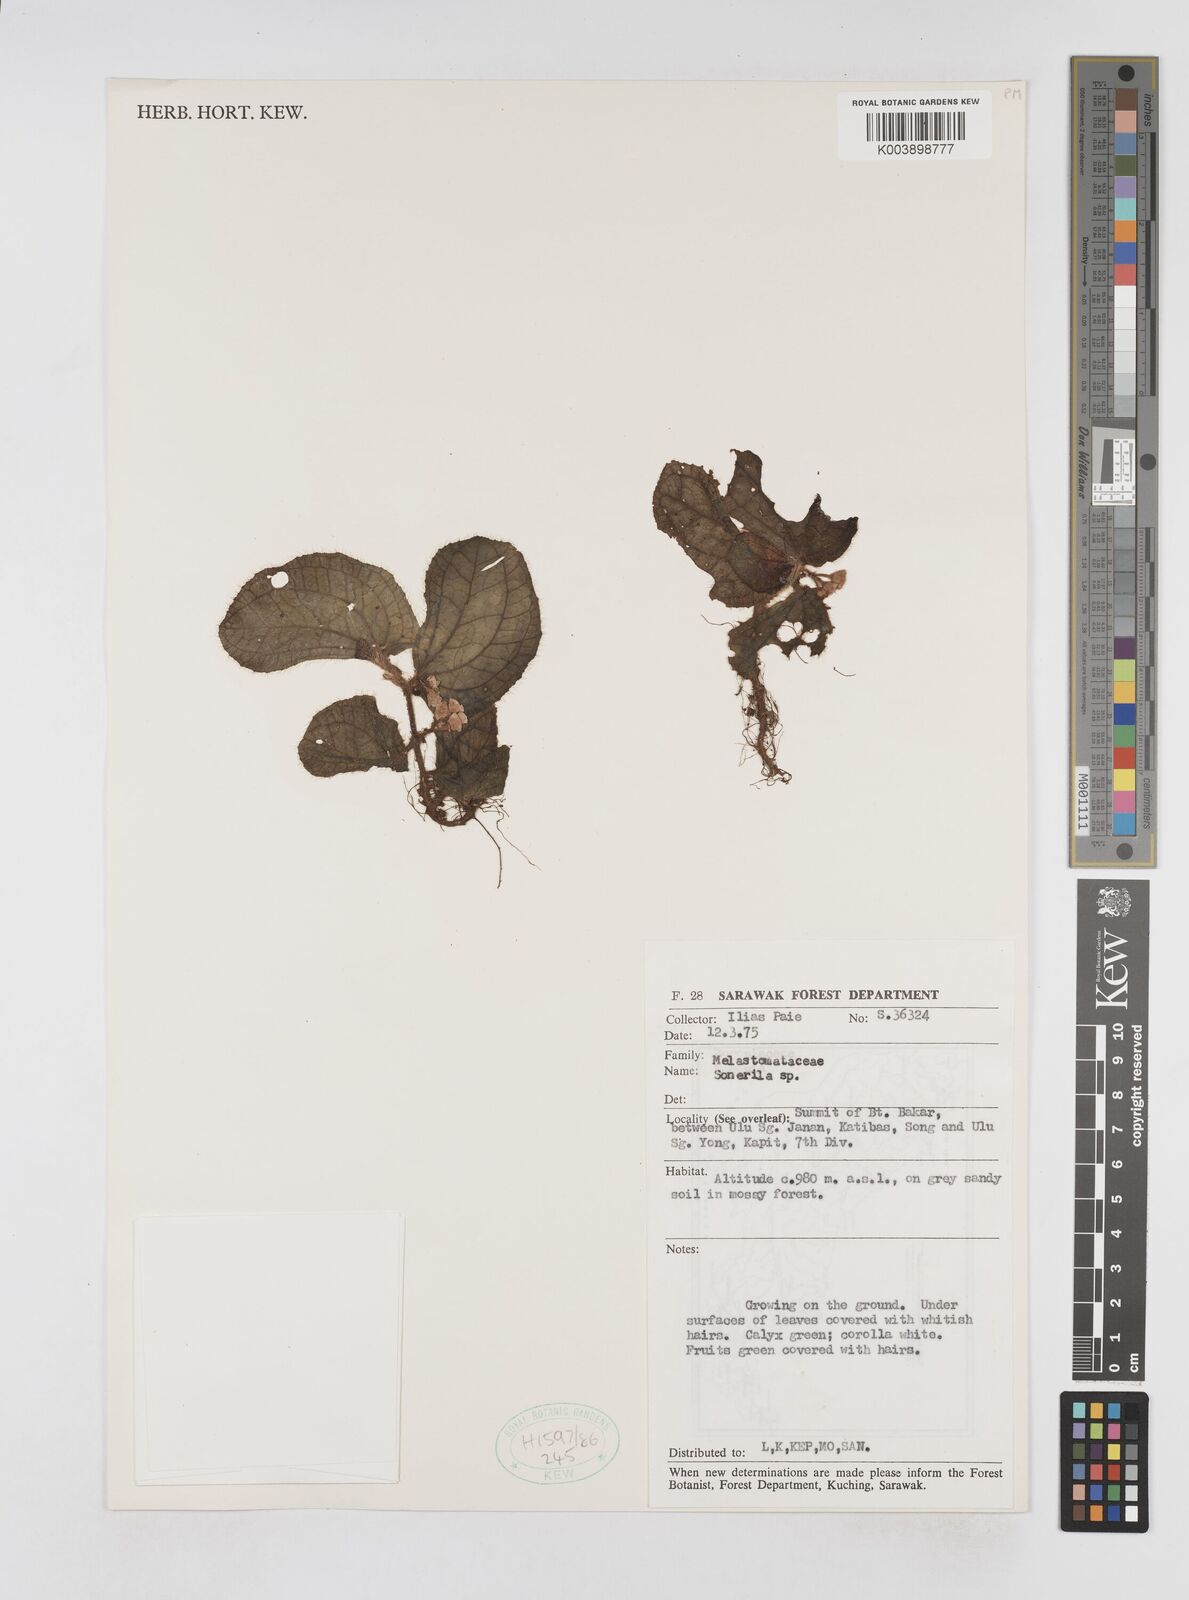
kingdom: Plantae
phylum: Tracheophyta
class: Magnoliopsida
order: Myrtales
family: Melastomataceae
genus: Sonerila
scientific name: Sonerila
